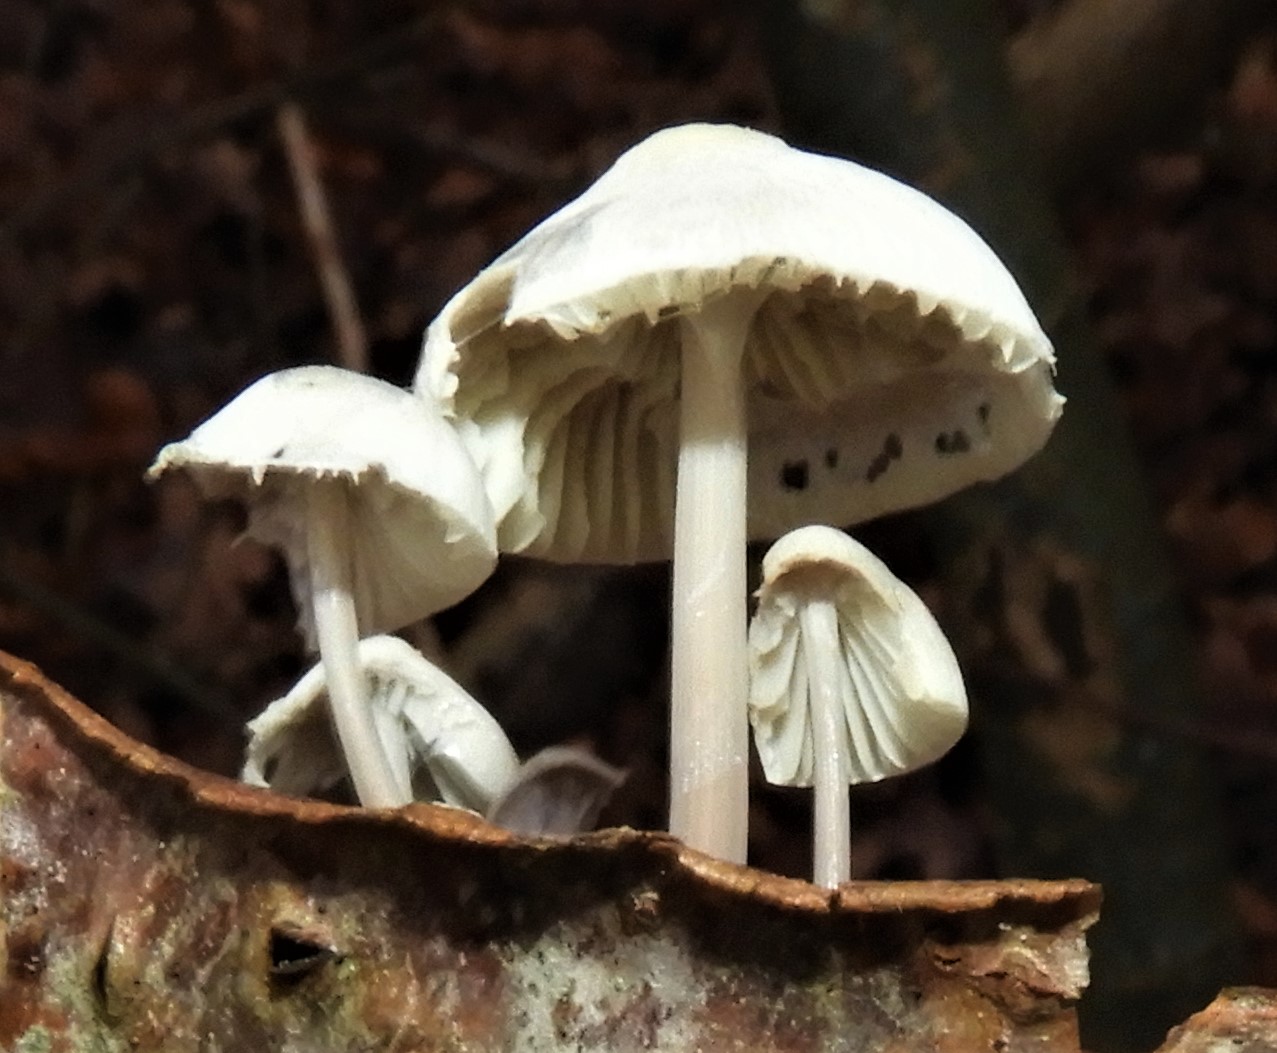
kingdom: Fungi
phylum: Basidiomycota
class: Agaricomycetes
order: Agaricales
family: Mycenaceae
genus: Mycena
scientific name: Mycena polygramma
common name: mangestribet huesvamp
